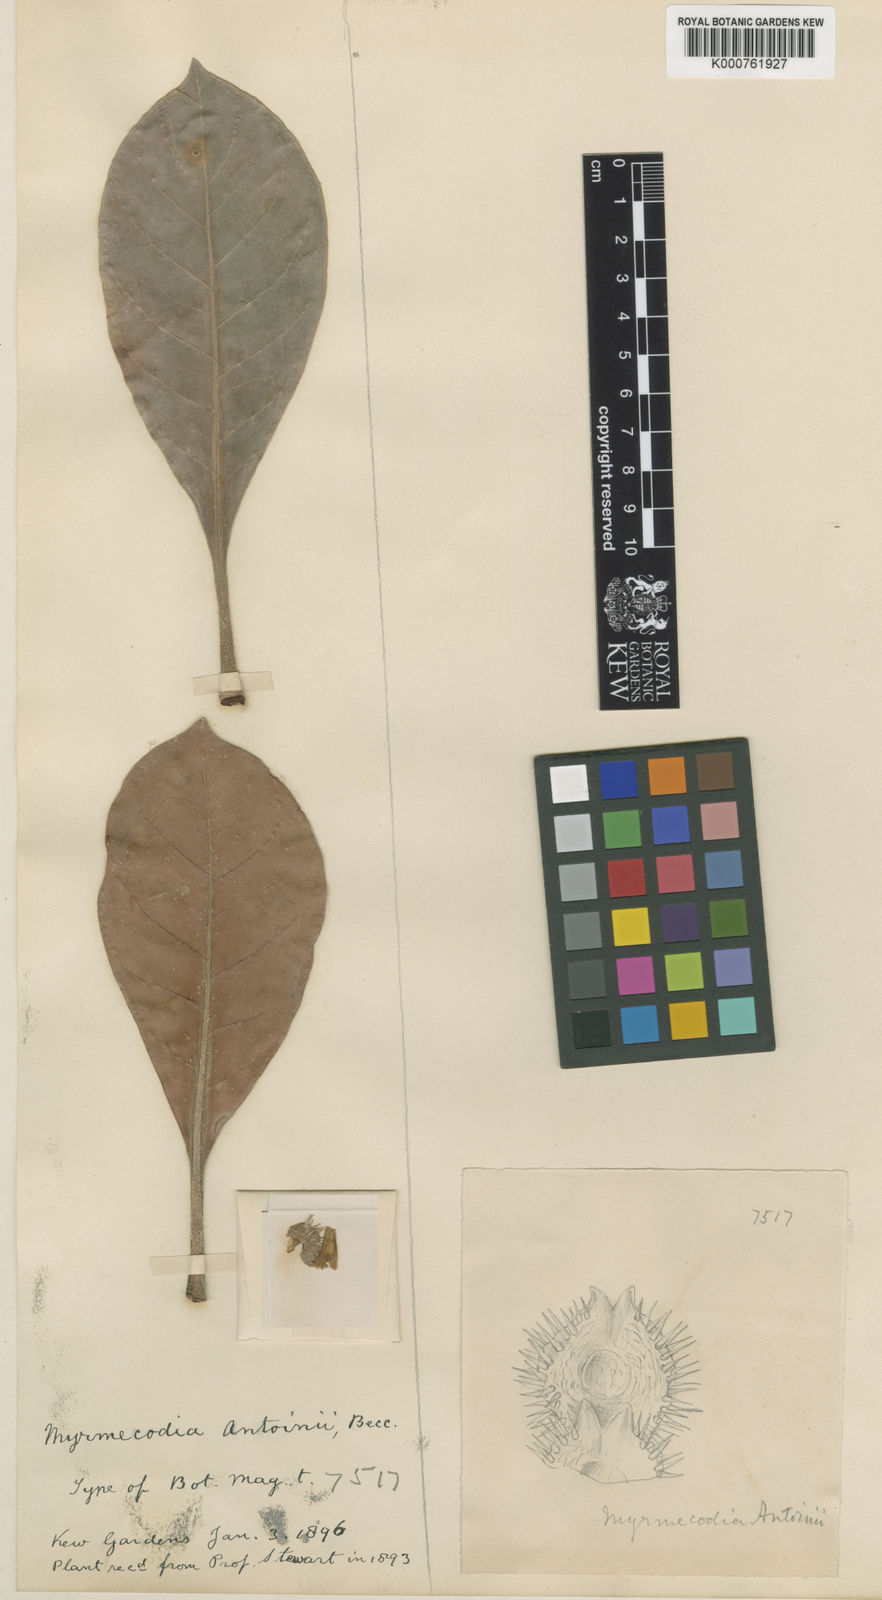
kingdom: Plantae
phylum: Tracheophyta
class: Magnoliopsida
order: Gentianales
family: Rubiaceae
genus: Myrmecodia
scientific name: Myrmecodia platytyrea
